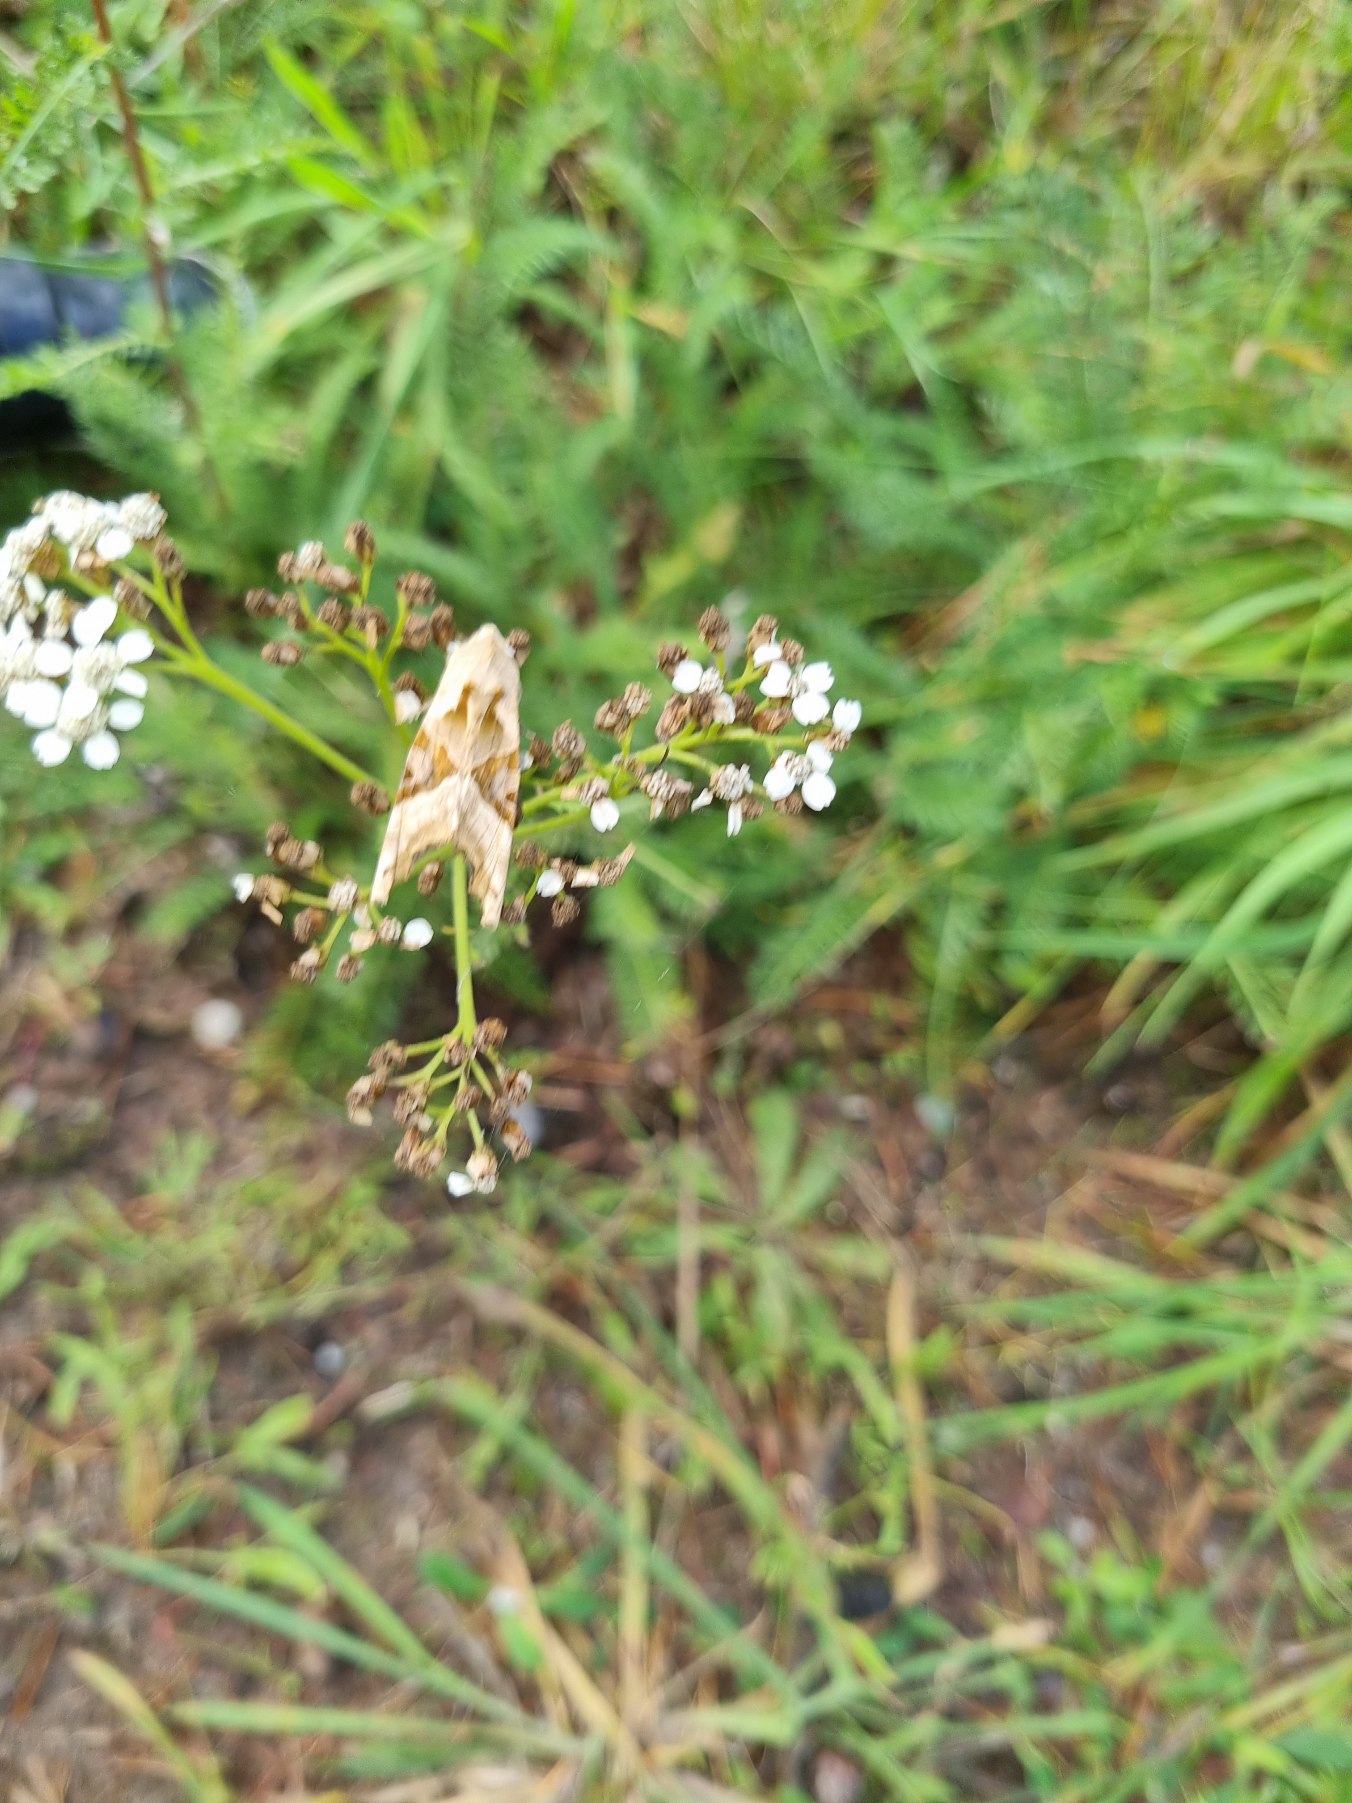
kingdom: Animalia
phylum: Arthropoda
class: Insecta
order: Lepidoptera
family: Noctuidae
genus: Phlogophora
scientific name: Phlogophora meticulosa
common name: Agatugle
